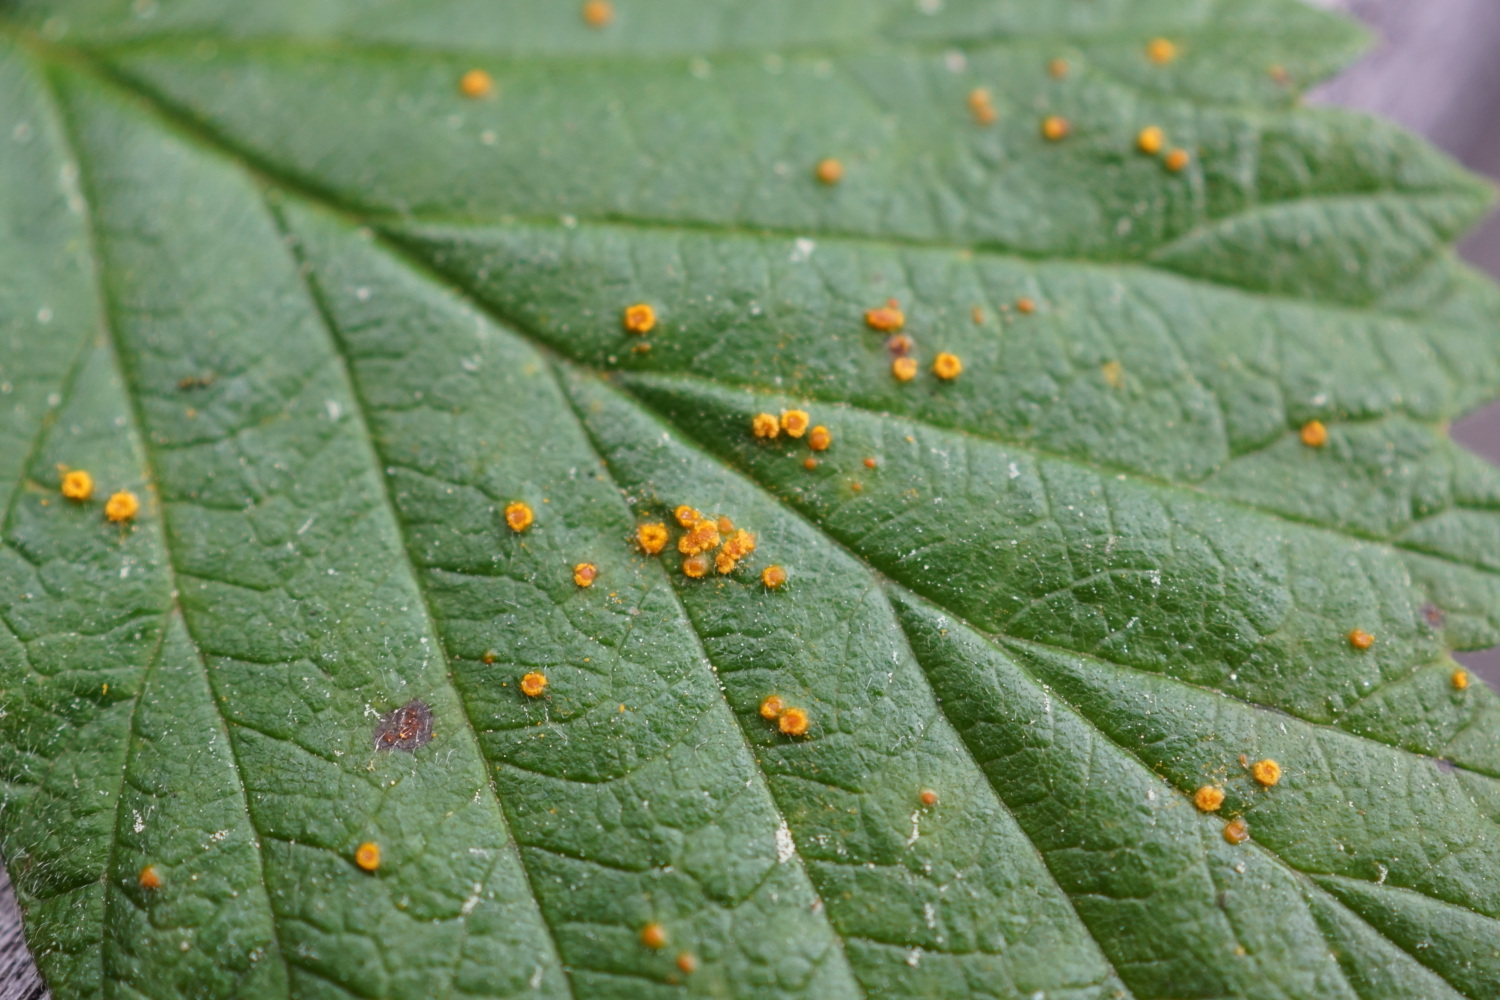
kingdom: Fungi
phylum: Basidiomycota
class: Pucciniomycetes
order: Pucciniales
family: Phragmidiaceae
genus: Phragmidium
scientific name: Phragmidium rubi-idaei
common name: hindbær-flercellerust
